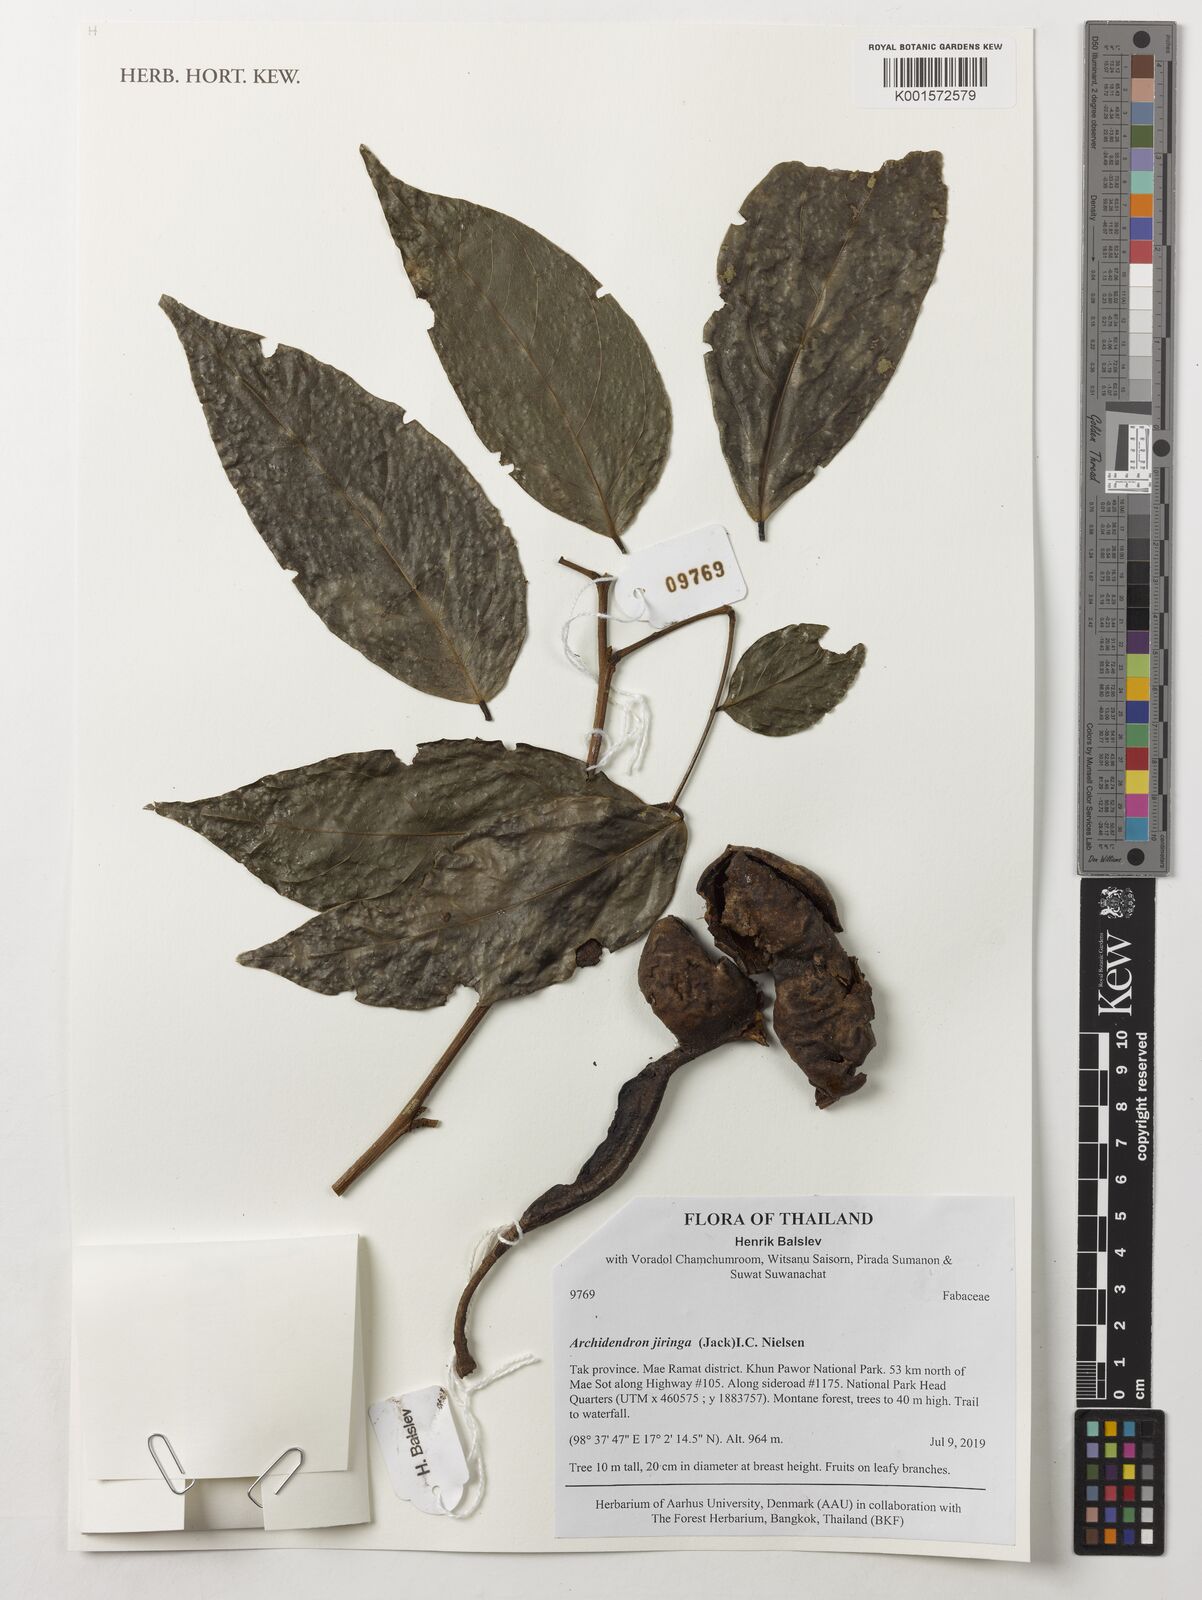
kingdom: Plantae
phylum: Tracheophyta
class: Magnoliopsida
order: Fabales
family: Fabaceae
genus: Archidendron
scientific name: Archidendron jiringa
